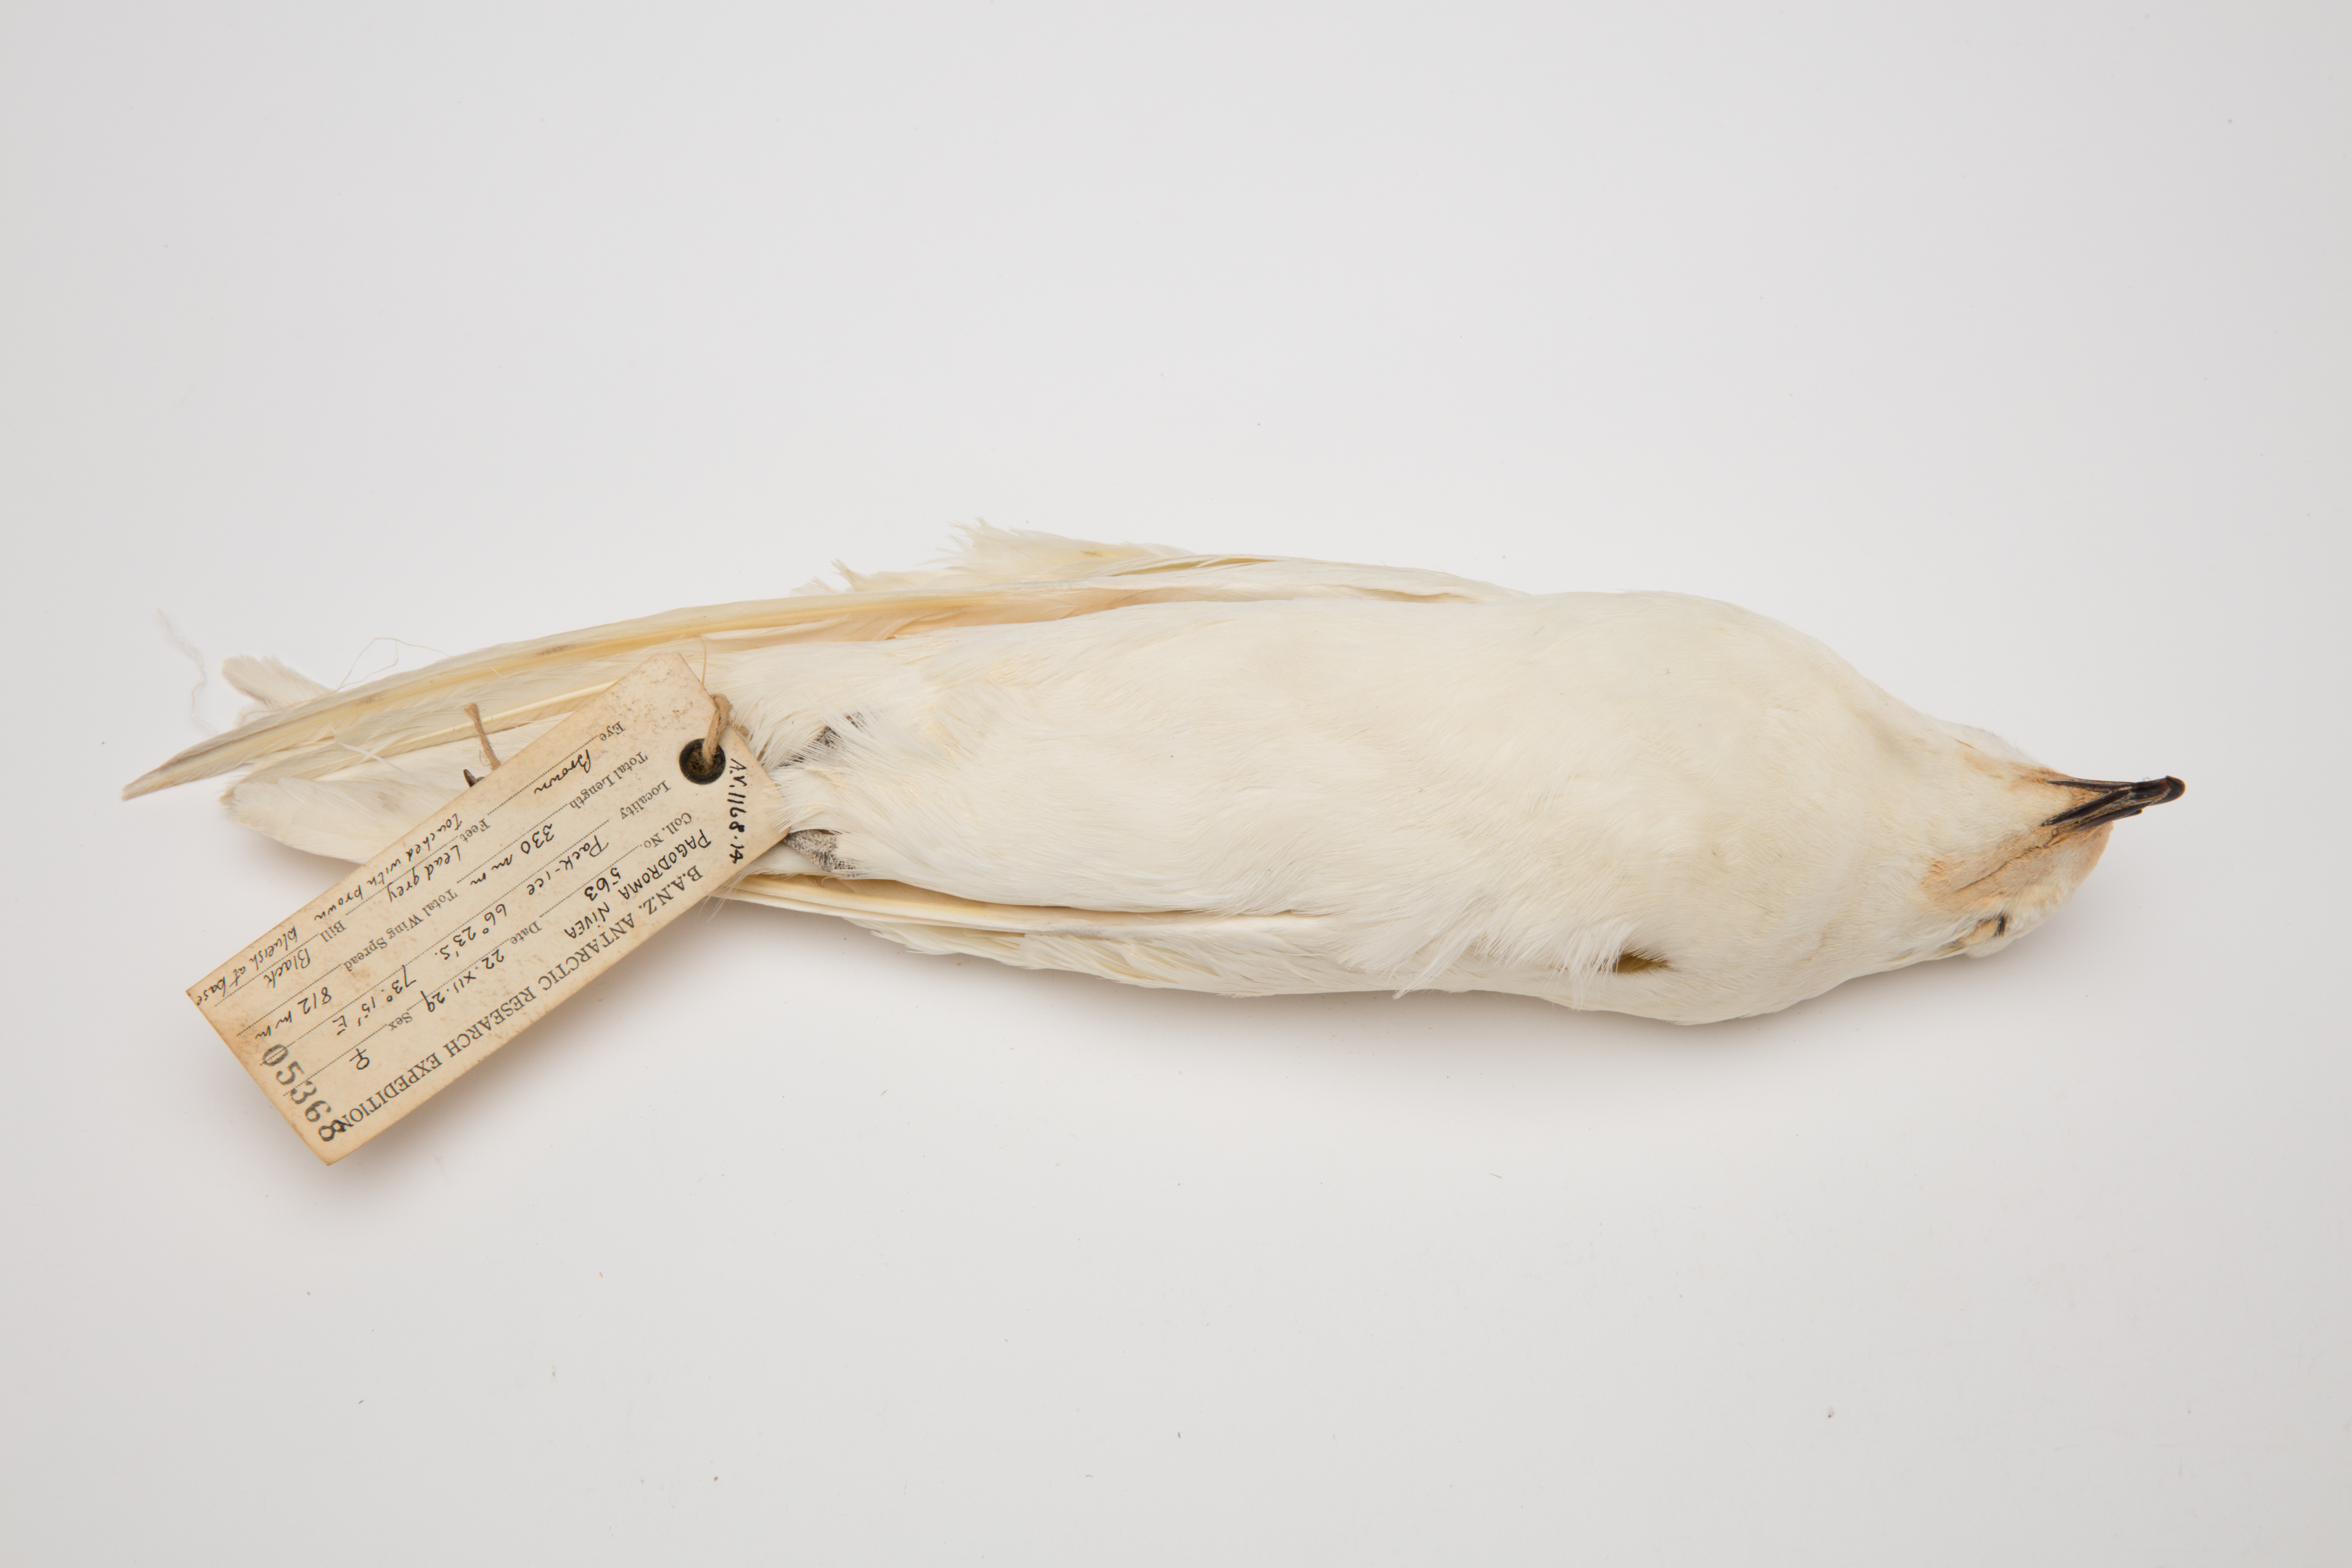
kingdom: Animalia
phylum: Chordata
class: Aves
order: Procellariiformes
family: Procellariidae
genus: Pagodroma
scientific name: Pagodroma nivea
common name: Snow petrel
